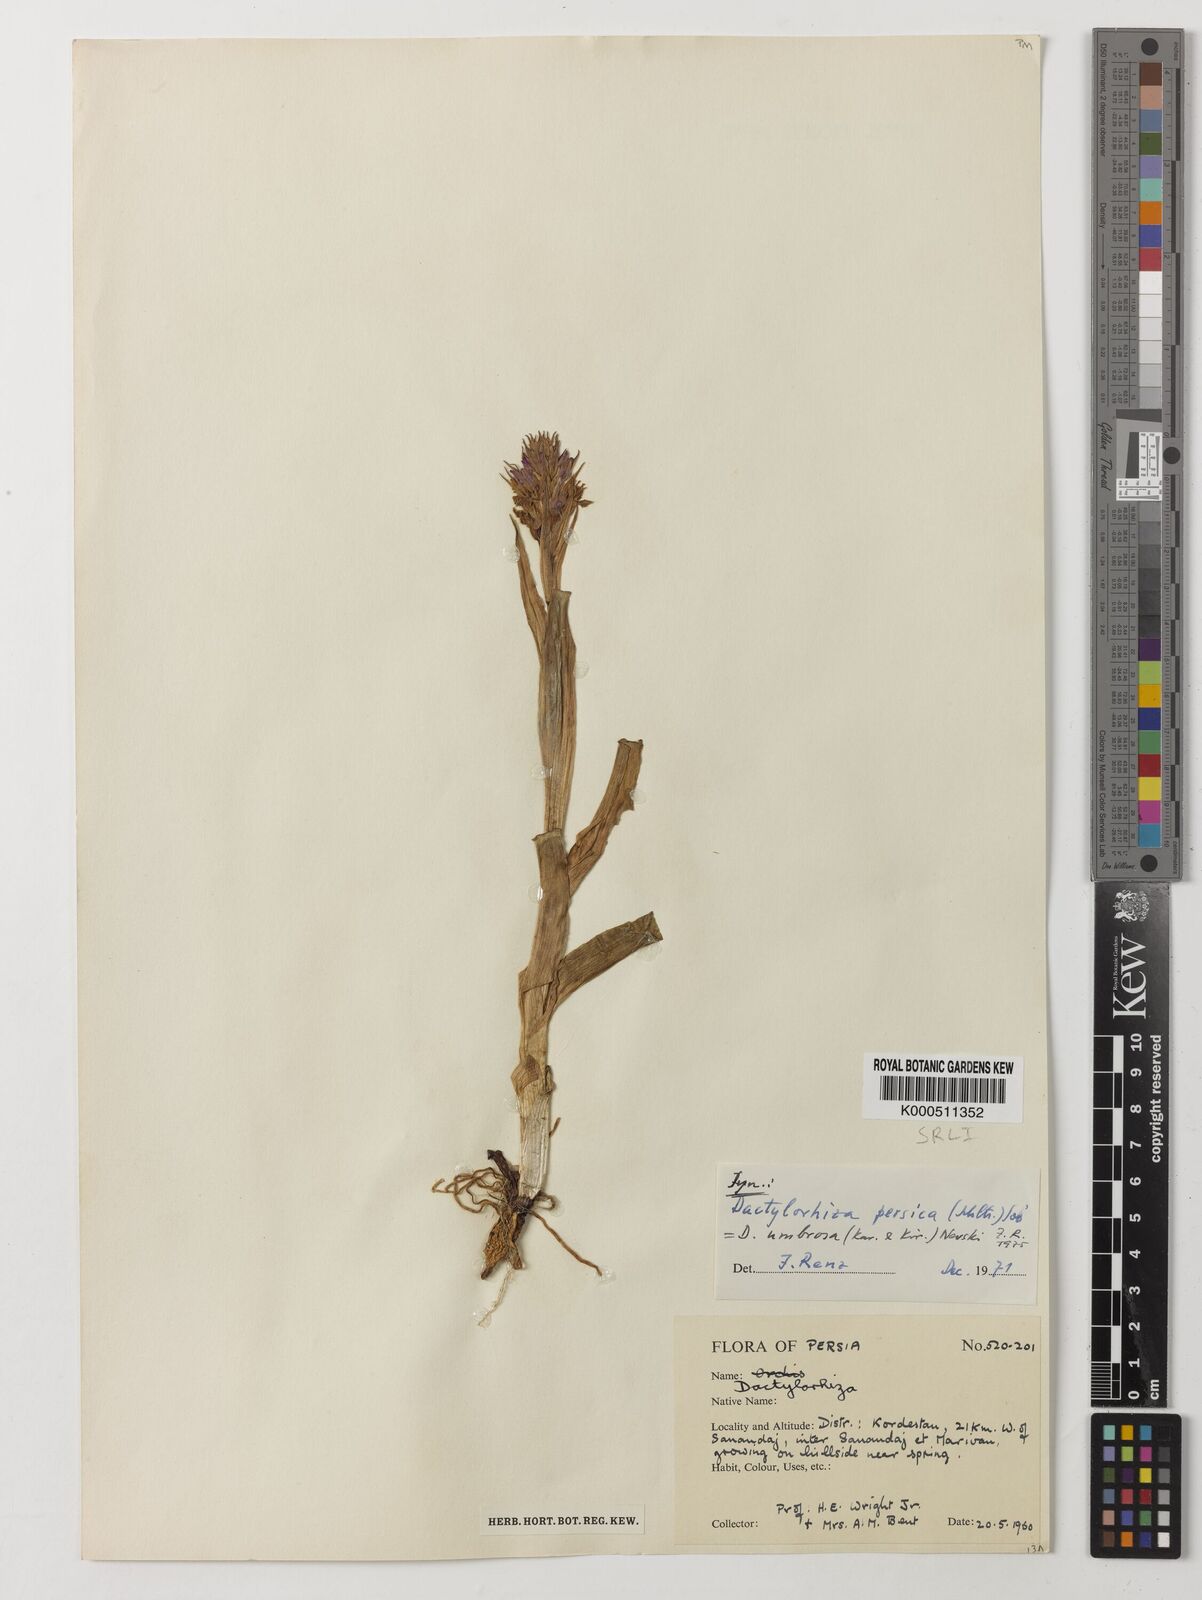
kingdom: Plantae
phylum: Tracheophyta
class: Liliopsida
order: Asparagales
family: Orchidaceae
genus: Dactylorhiza
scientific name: Dactylorhiza
